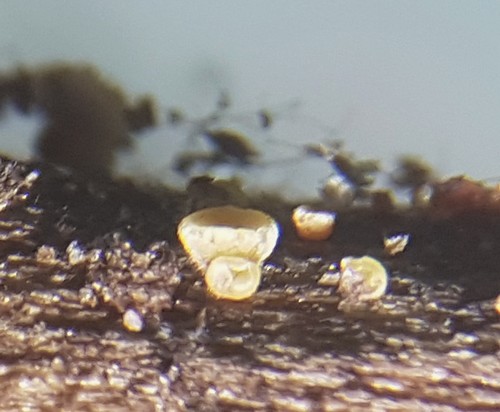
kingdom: Fungi
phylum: Ascomycota
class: Leotiomycetes
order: Helotiales
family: Pezizellaceae
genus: Calycellina
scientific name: Calycellina
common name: hårskive
